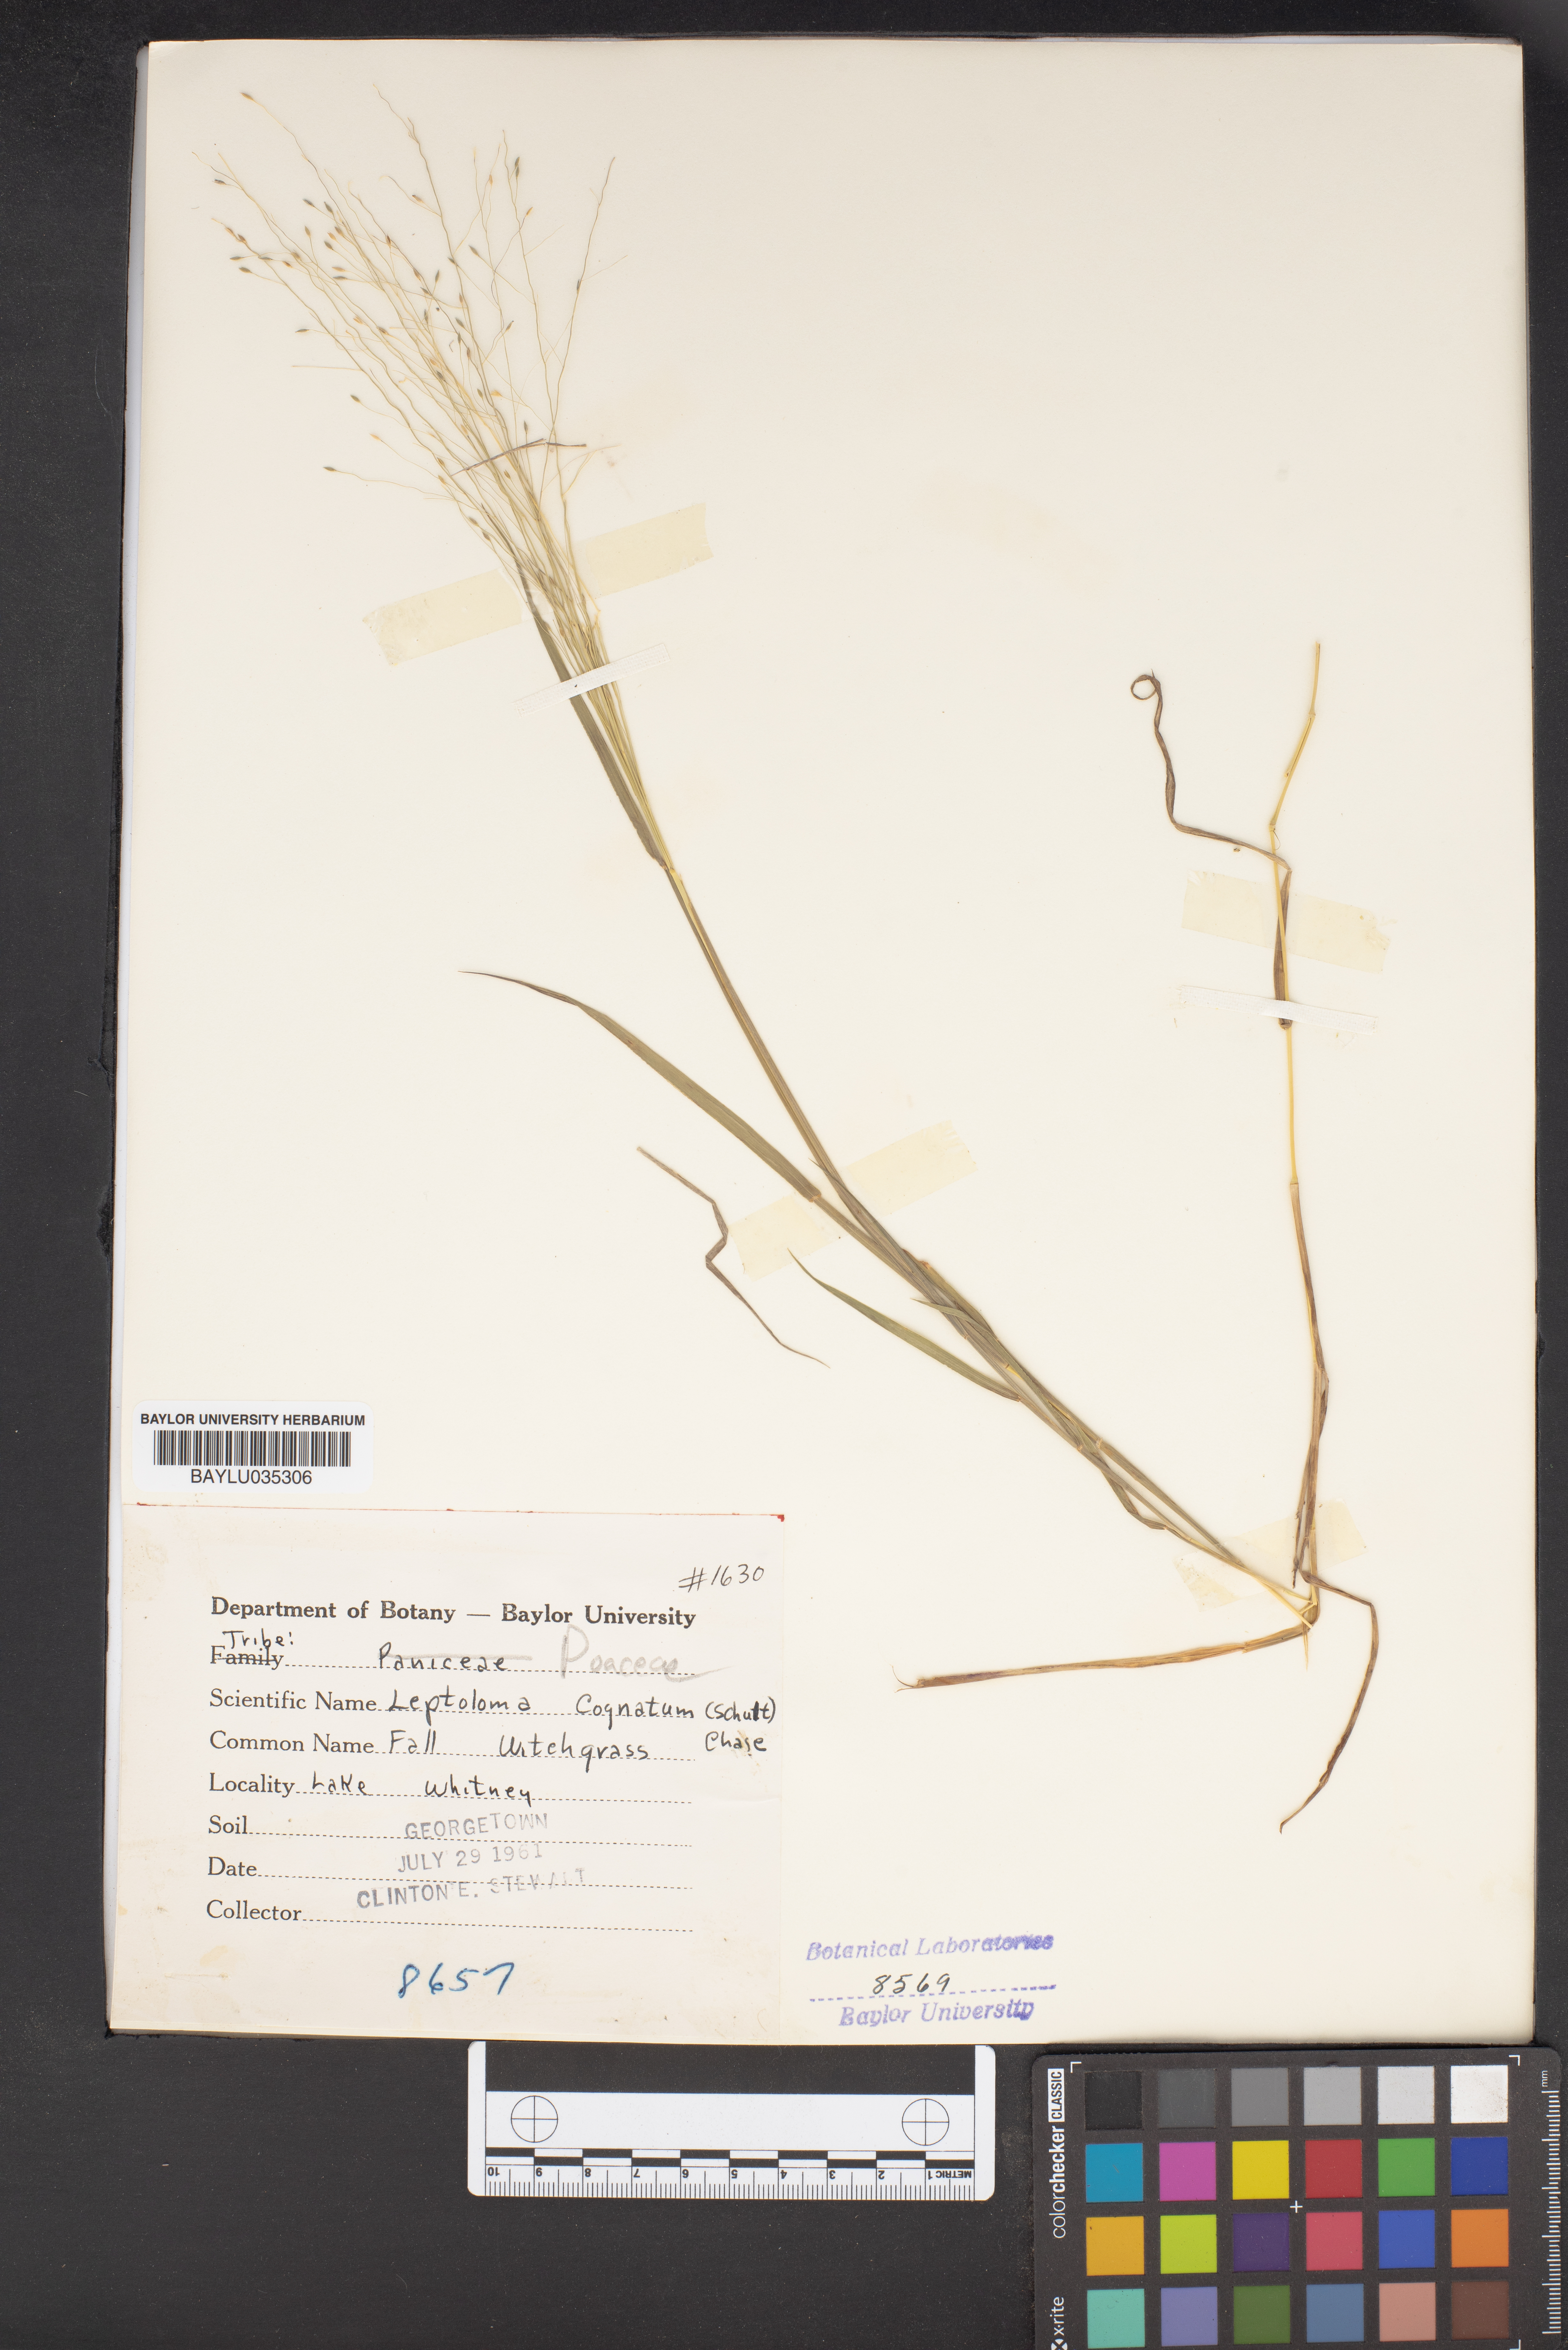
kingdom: Plantae
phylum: Tracheophyta
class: Liliopsida
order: Poales
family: Poaceae
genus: Digitaria
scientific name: Digitaria cognata
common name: Fall witchgrass
